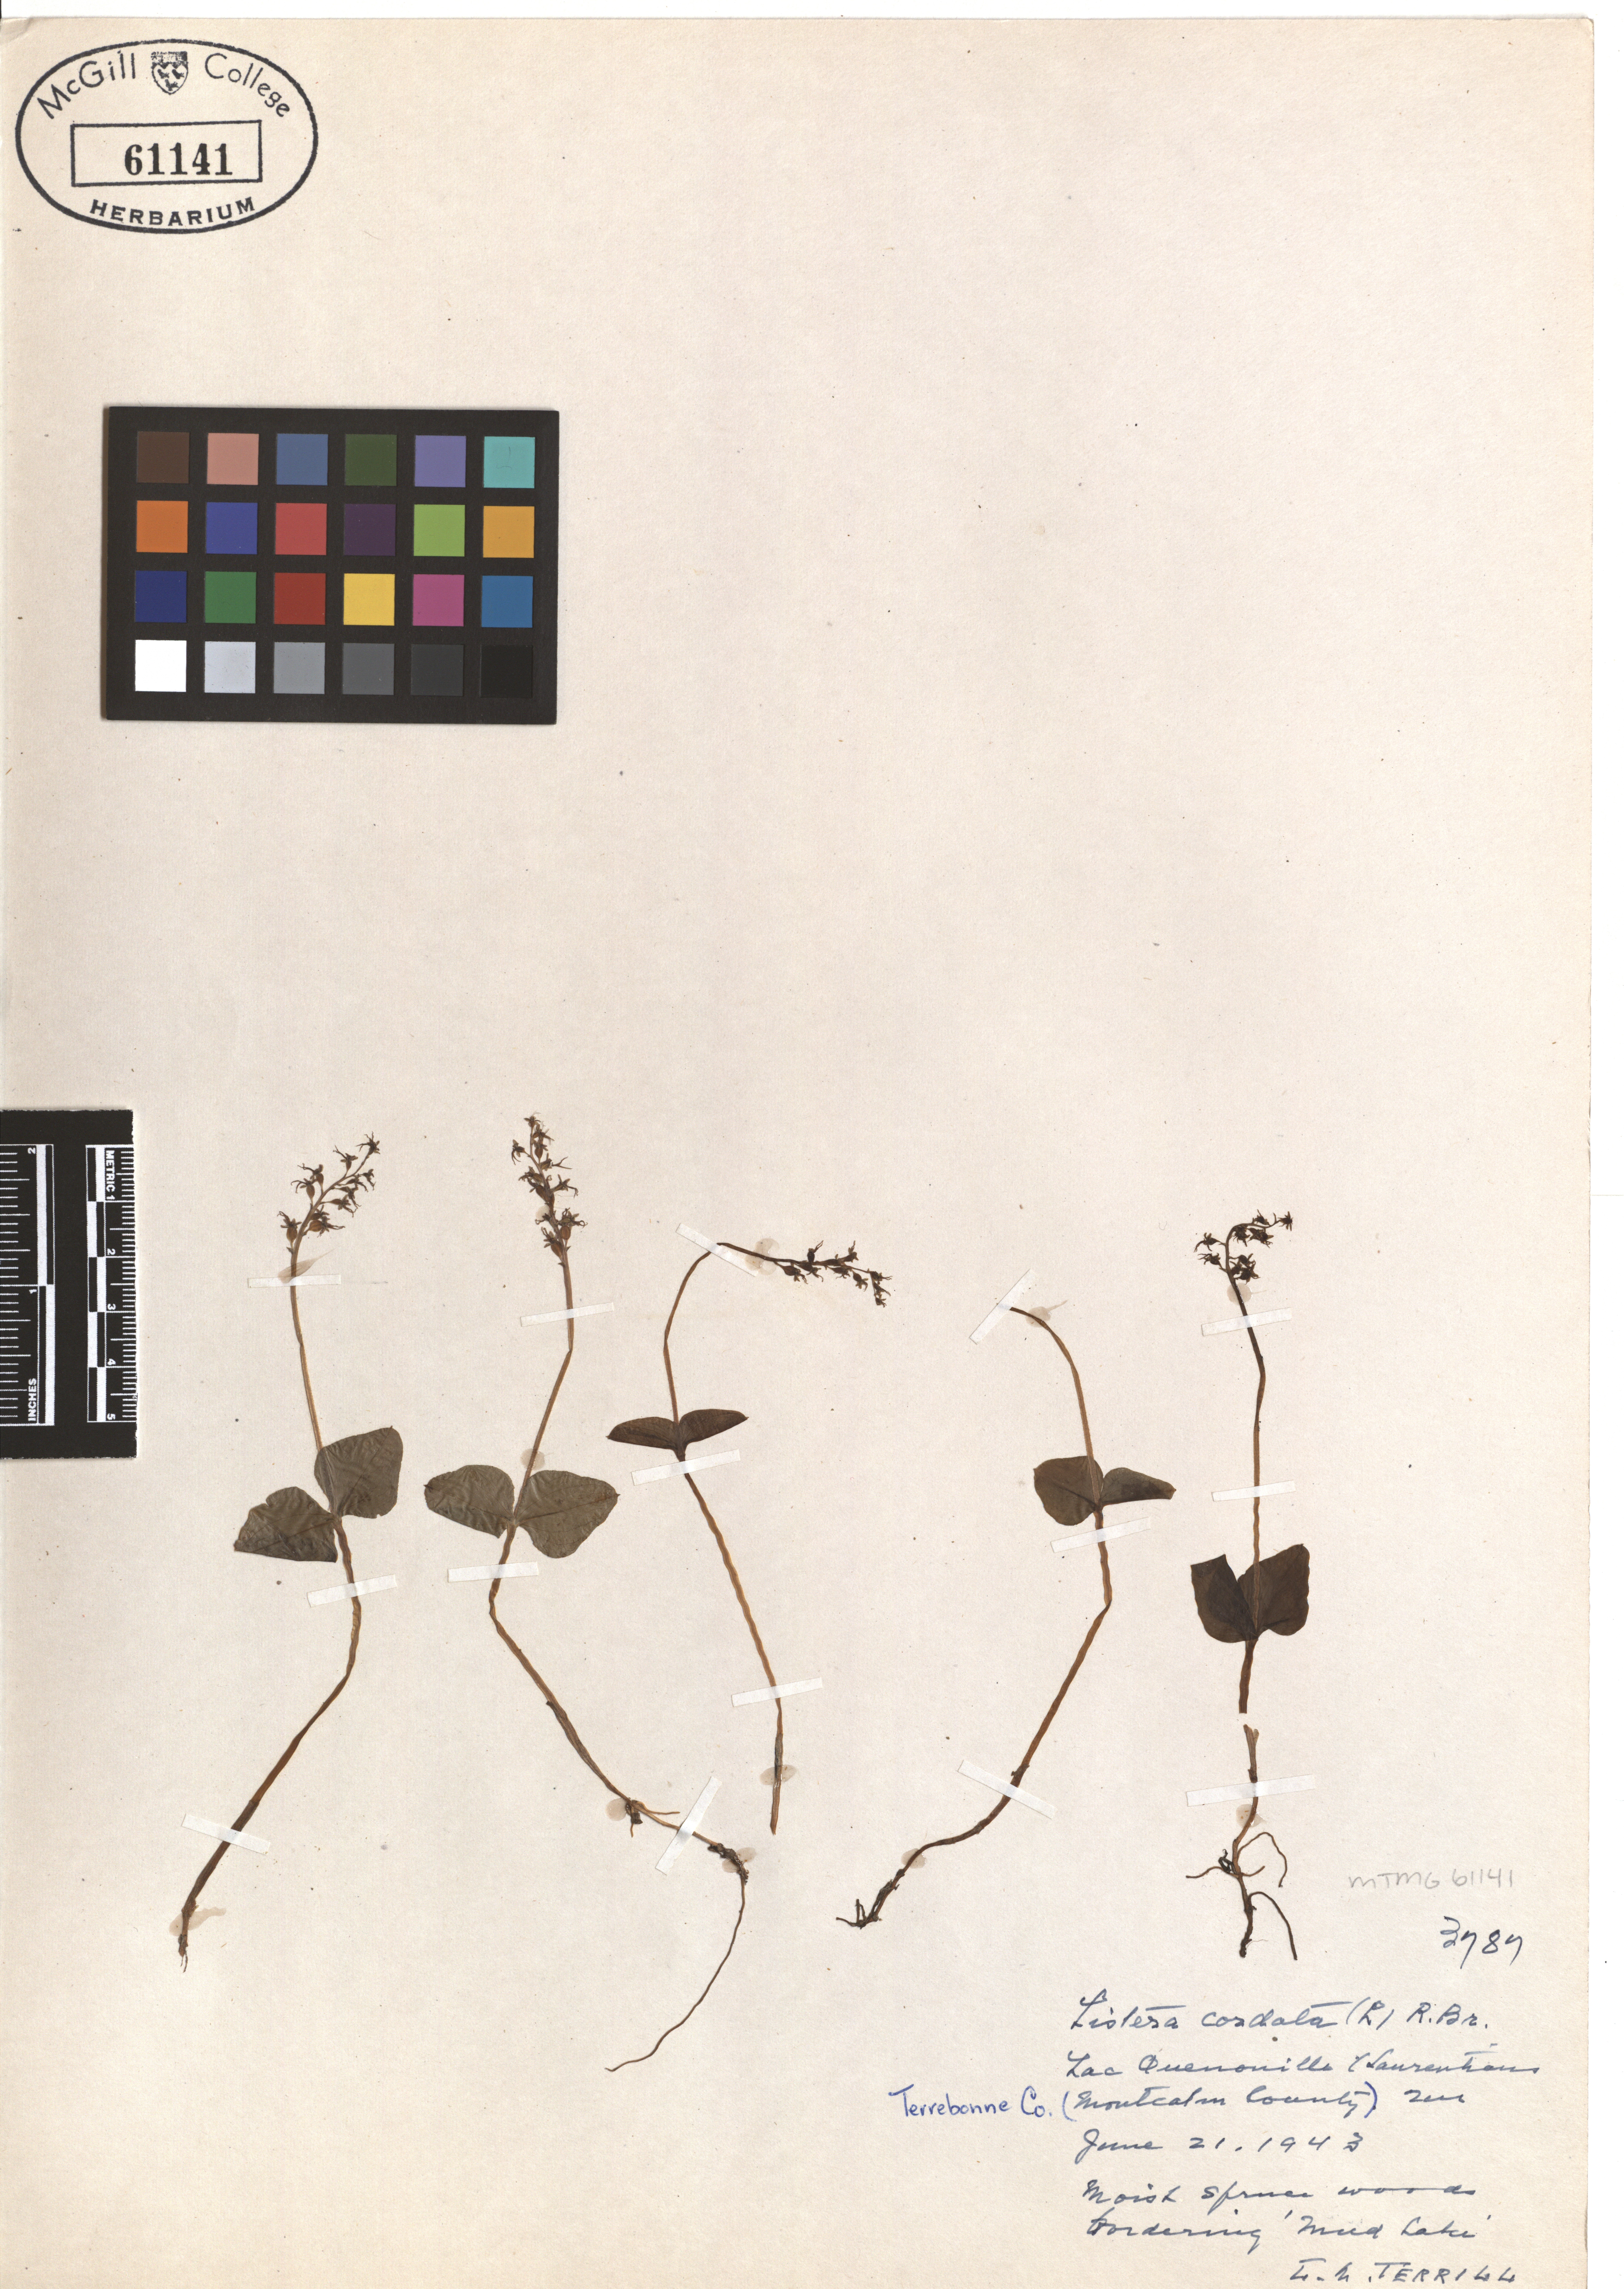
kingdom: Plantae
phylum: Tracheophyta
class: Liliopsida
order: Asparagales
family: Orchidaceae
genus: Neottia
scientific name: Neottia cordata
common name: Lesser twayblade
